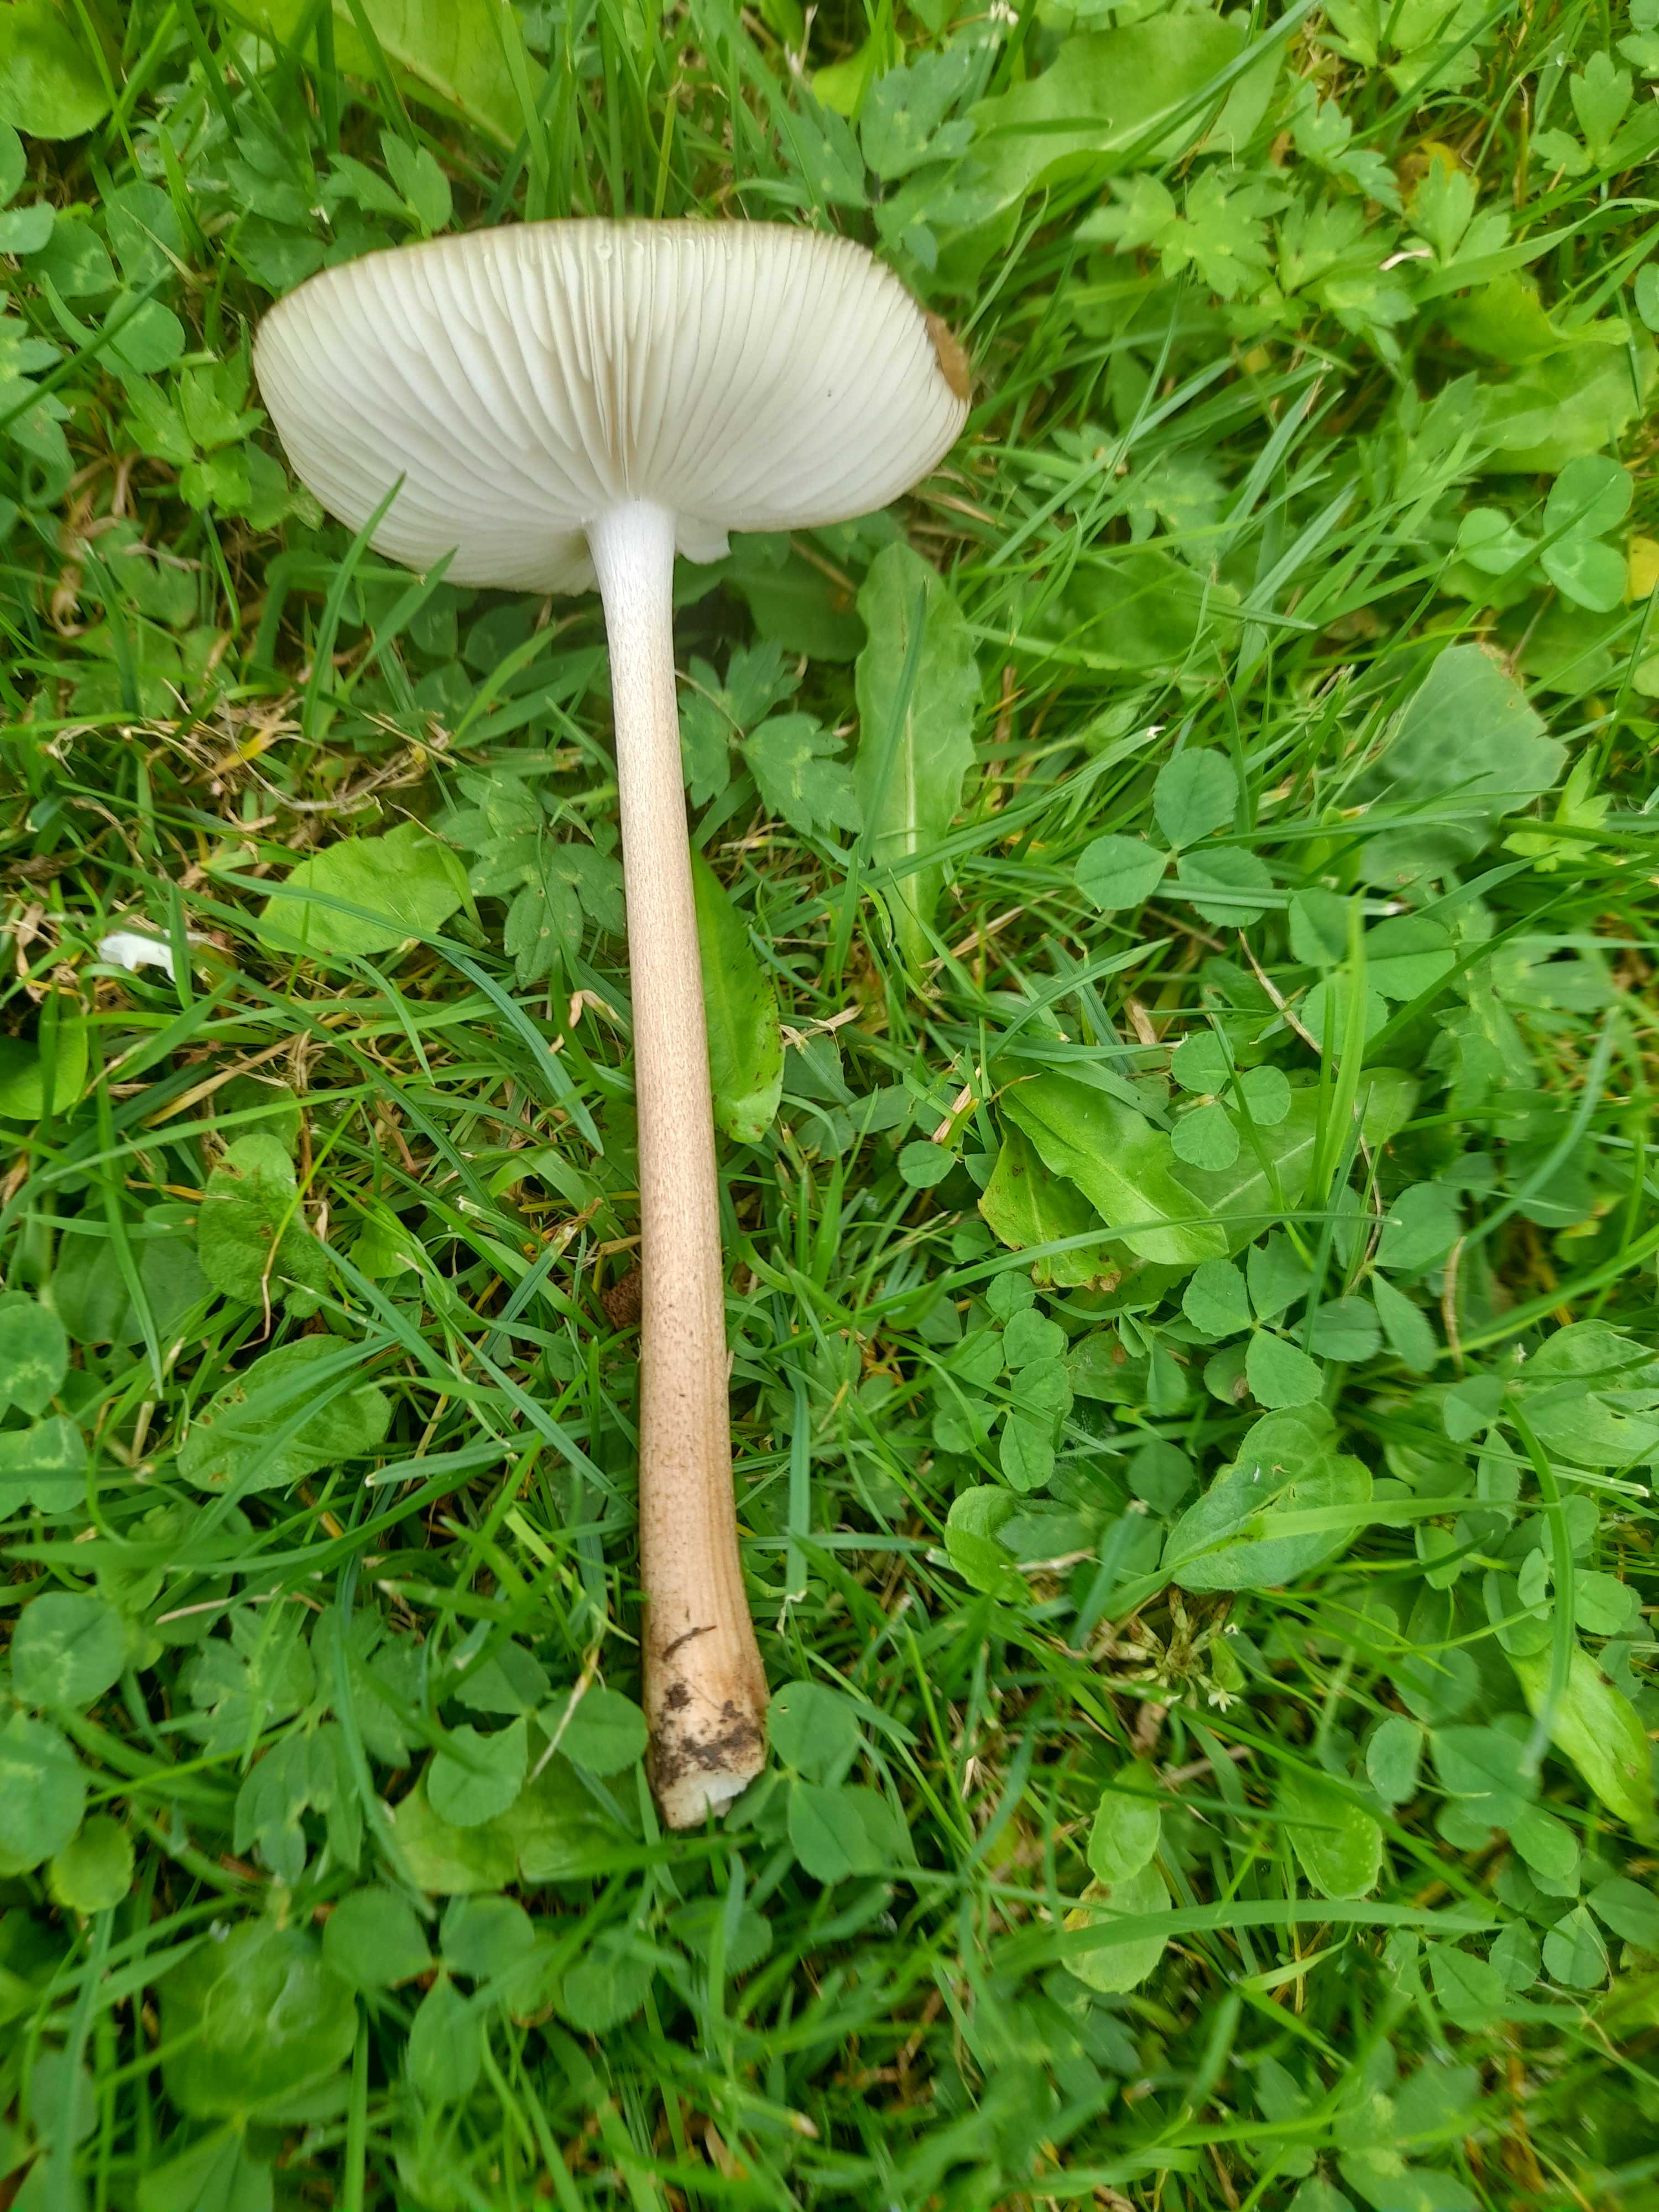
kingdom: Fungi
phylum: Basidiomycota
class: Agaricomycetes
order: Agaricales
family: Physalacriaceae
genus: Hymenopellis
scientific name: Hymenopellis radicata
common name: almindelig pælerodshat
